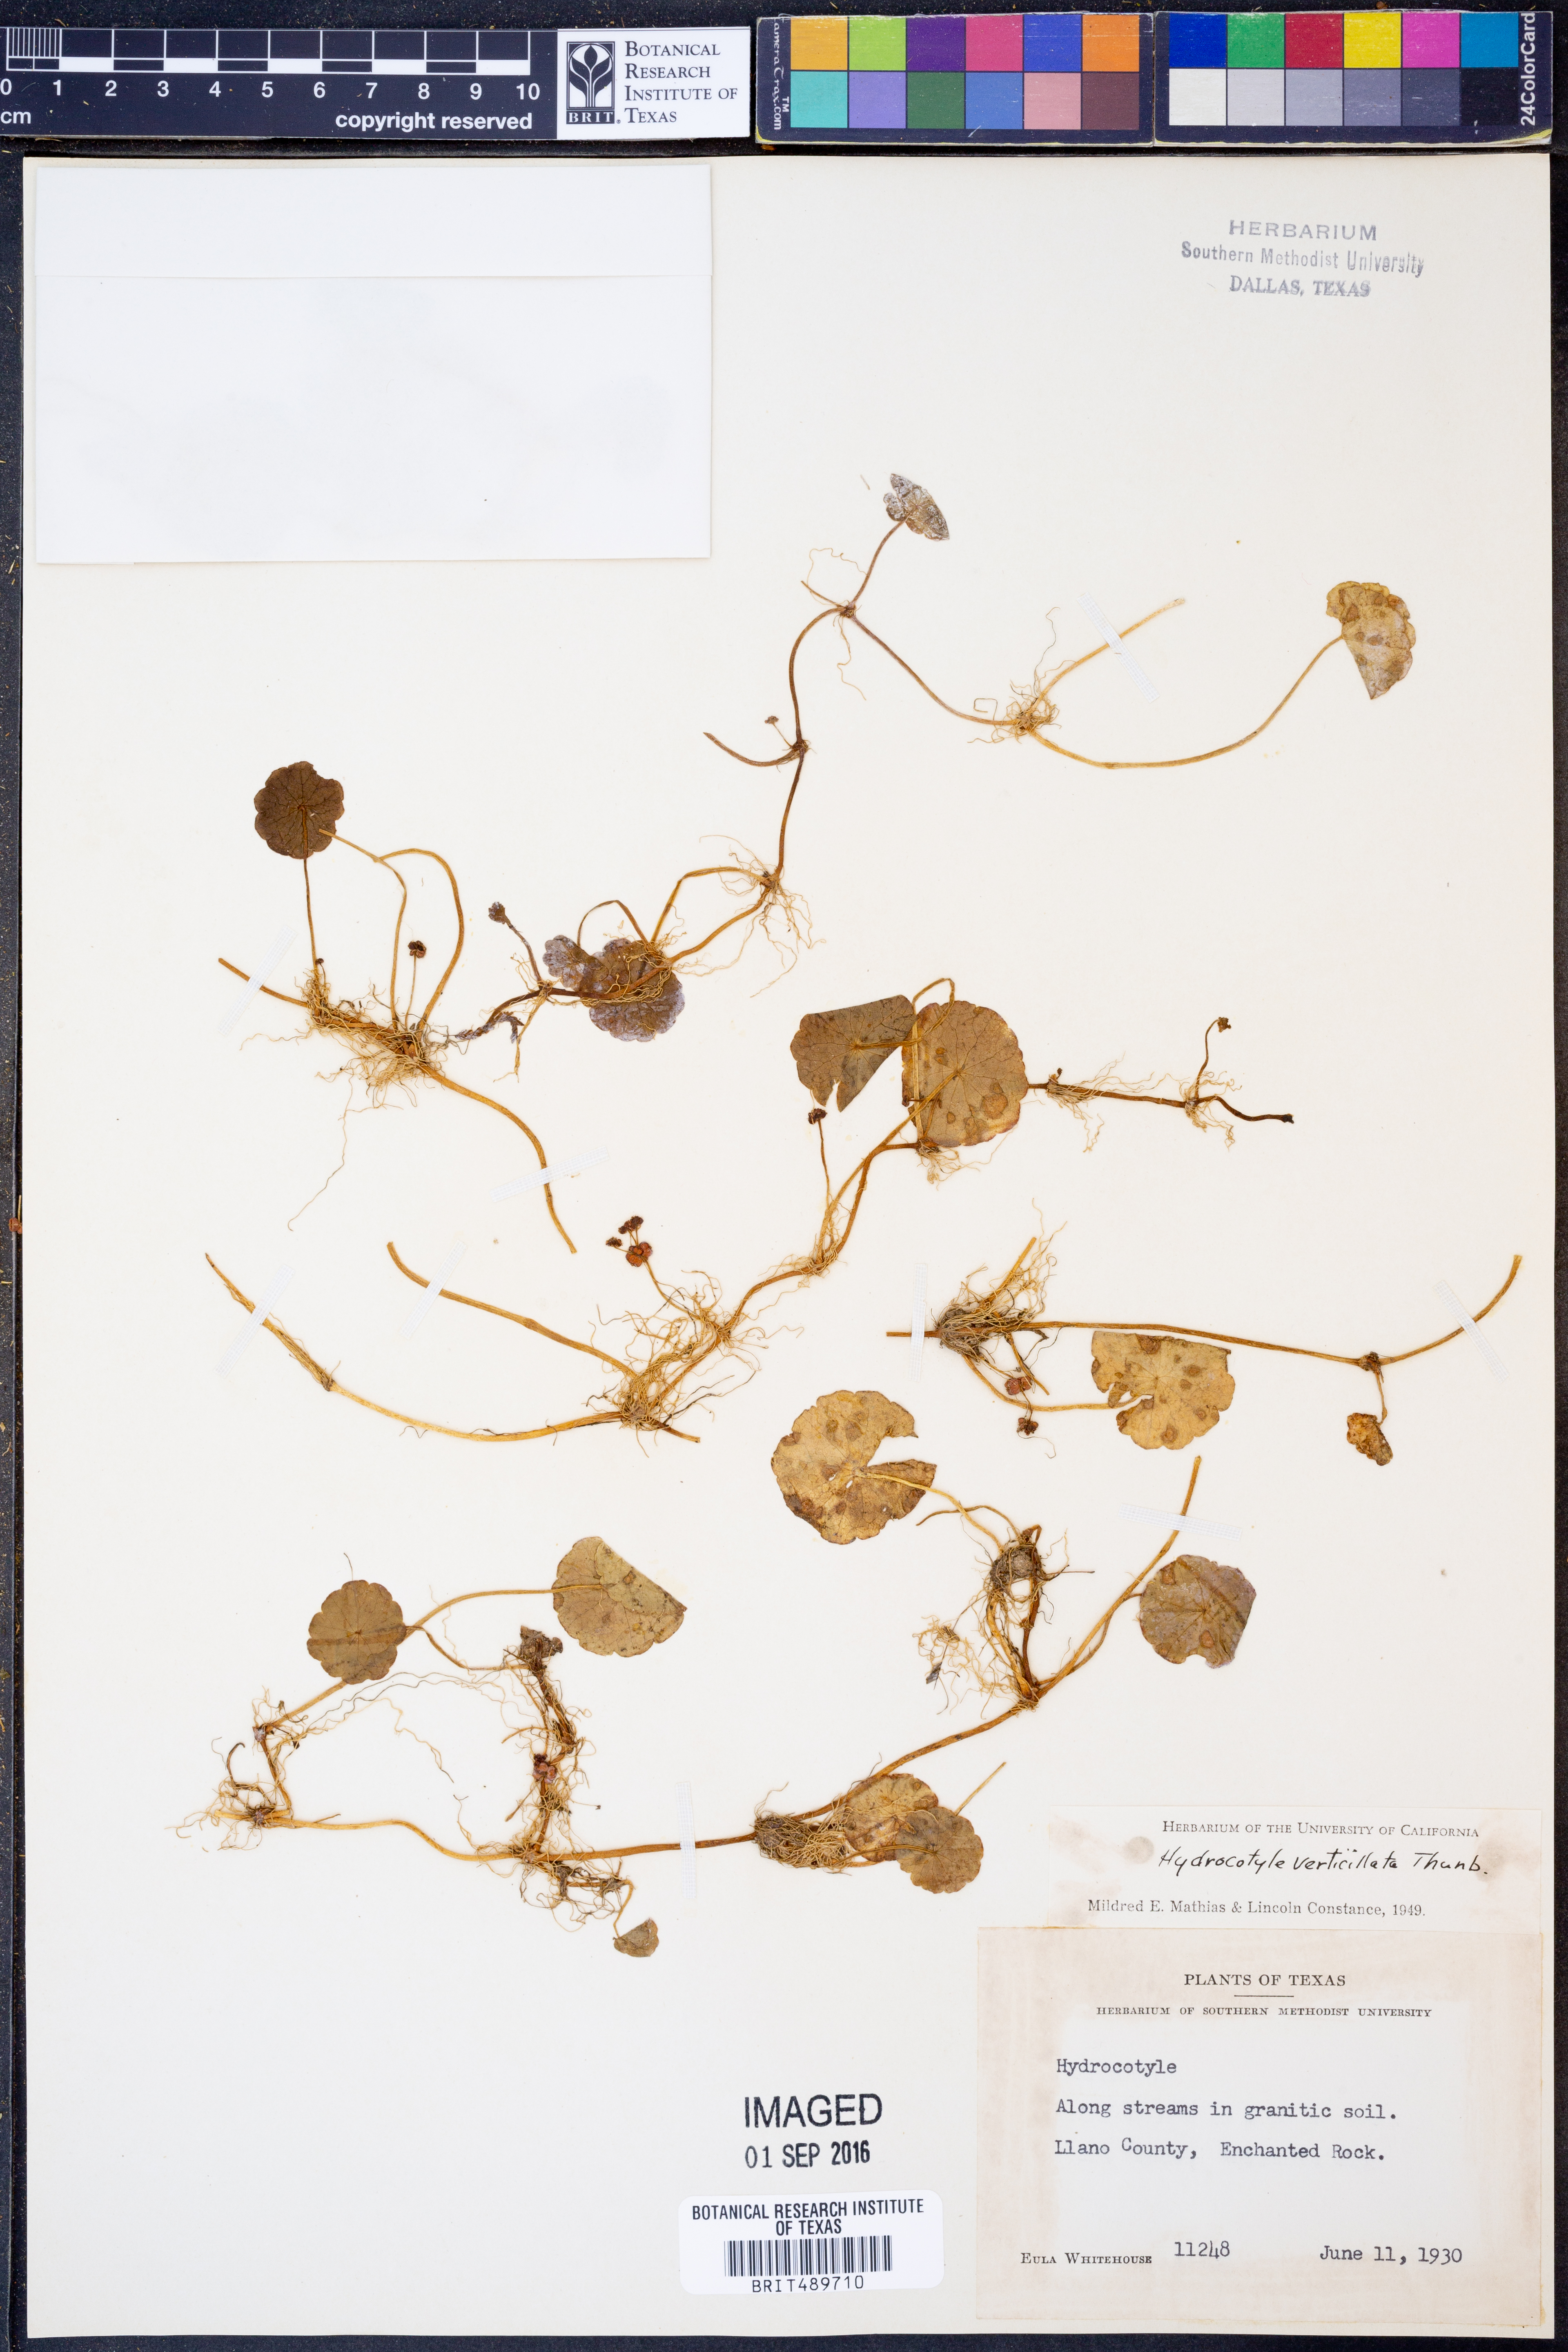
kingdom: Plantae
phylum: Tracheophyta
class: Magnoliopsida
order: Apiales
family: Araliaceae
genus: Hydrocotyle
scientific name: Hydrocotyle verticillata
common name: Whorled marshpennywort
